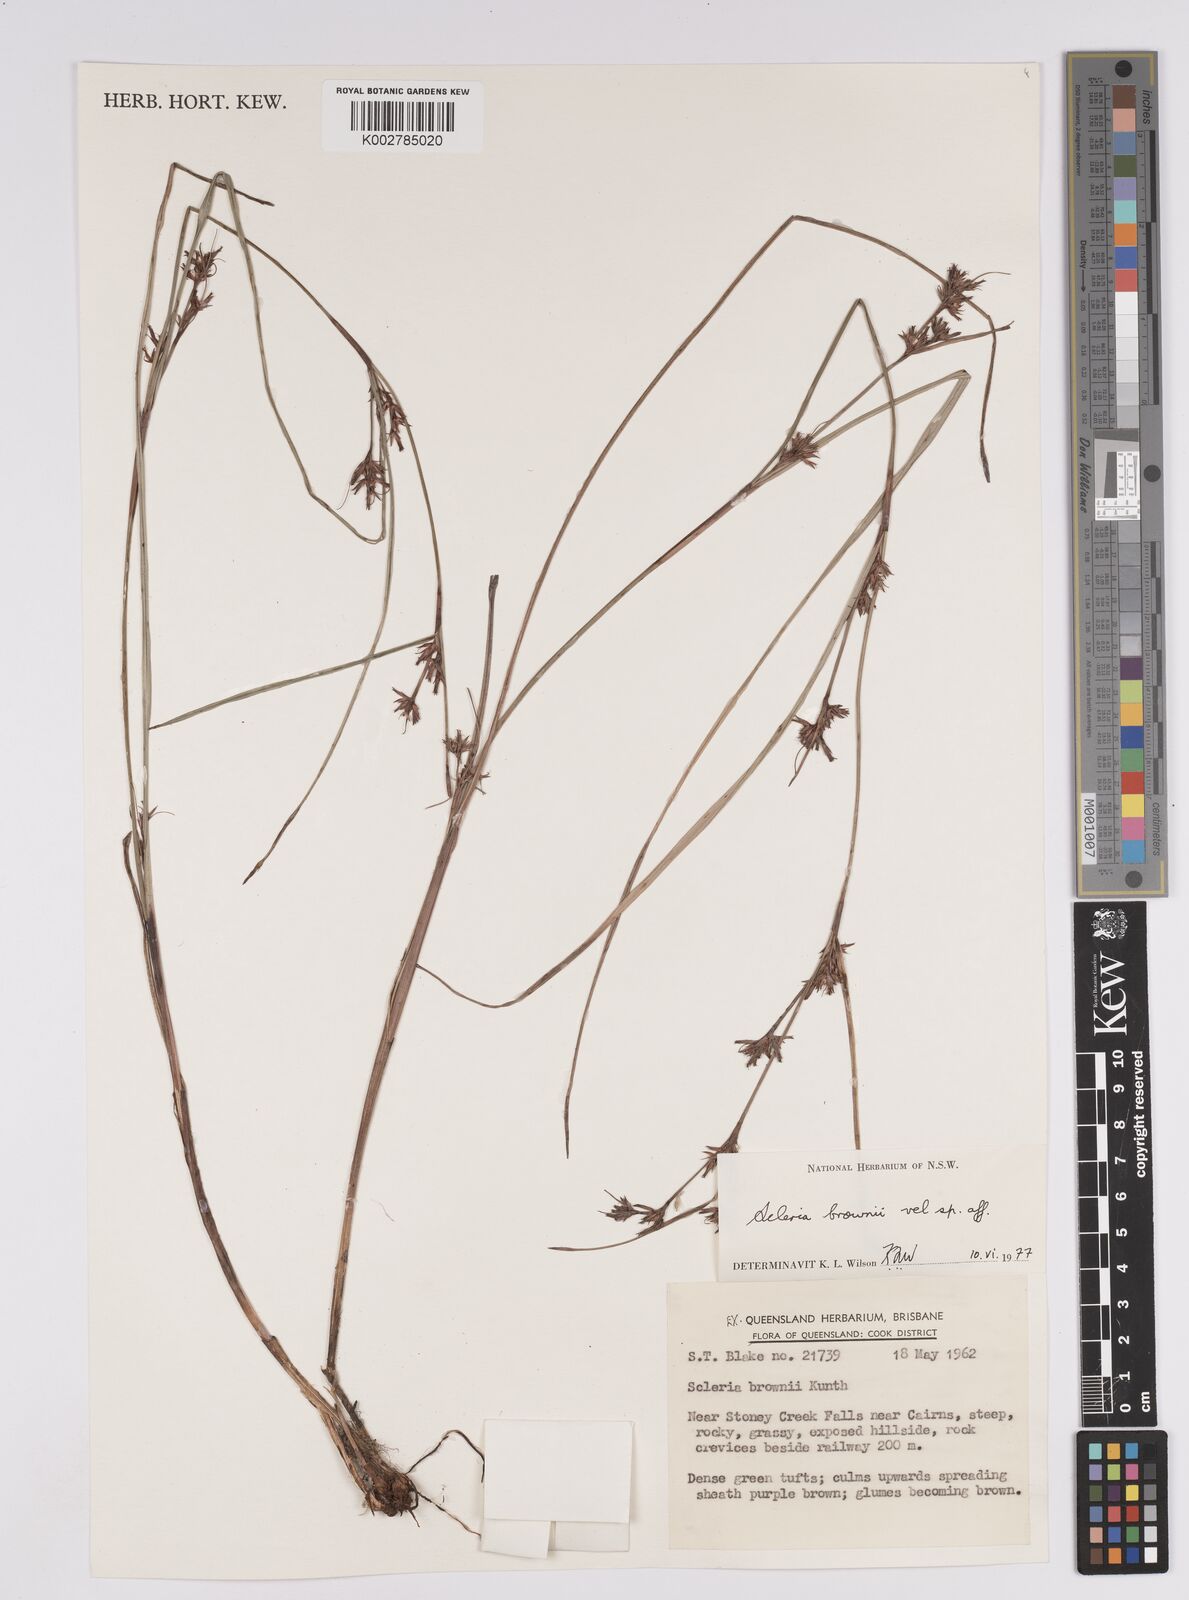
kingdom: Plantae
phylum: Tracheophyta
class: Liliopsida
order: Poales
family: Cyperaceae
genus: Scleria
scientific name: Scleria brownii
